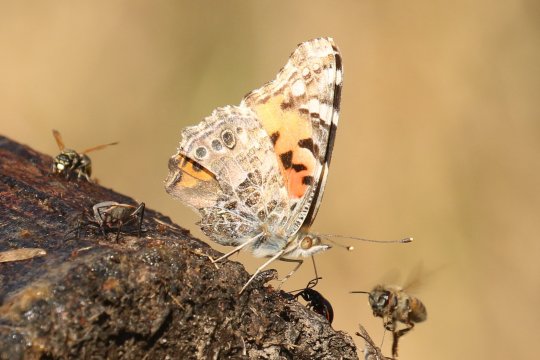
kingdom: Animalia
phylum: Arthropoda
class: Insecta
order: Lepidoptera
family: Nymphalidae
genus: Vanessa
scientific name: Vanessa cardui
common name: Painted Lady
